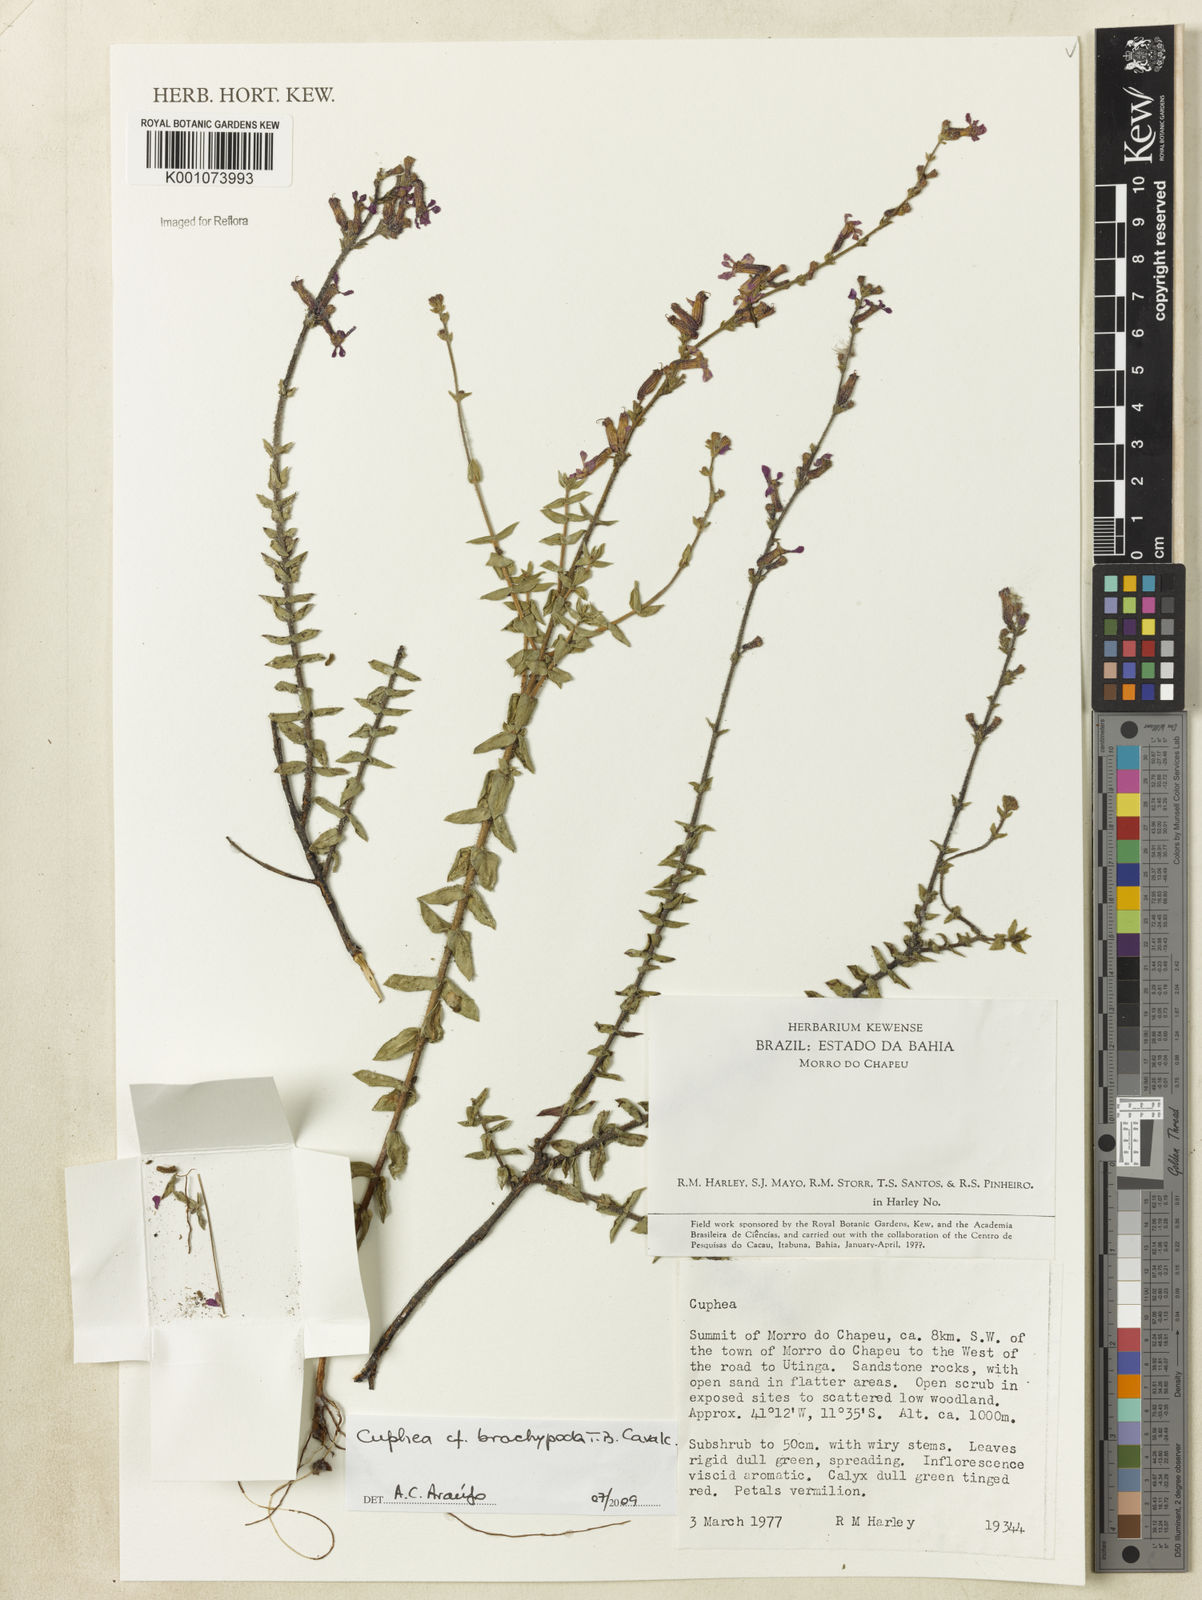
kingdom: Plantae
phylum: Tracheophyta
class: Magnoliopsida
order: Myrtales
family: Lythraceae
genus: Cuphea
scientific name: Cuphea brachypoda
